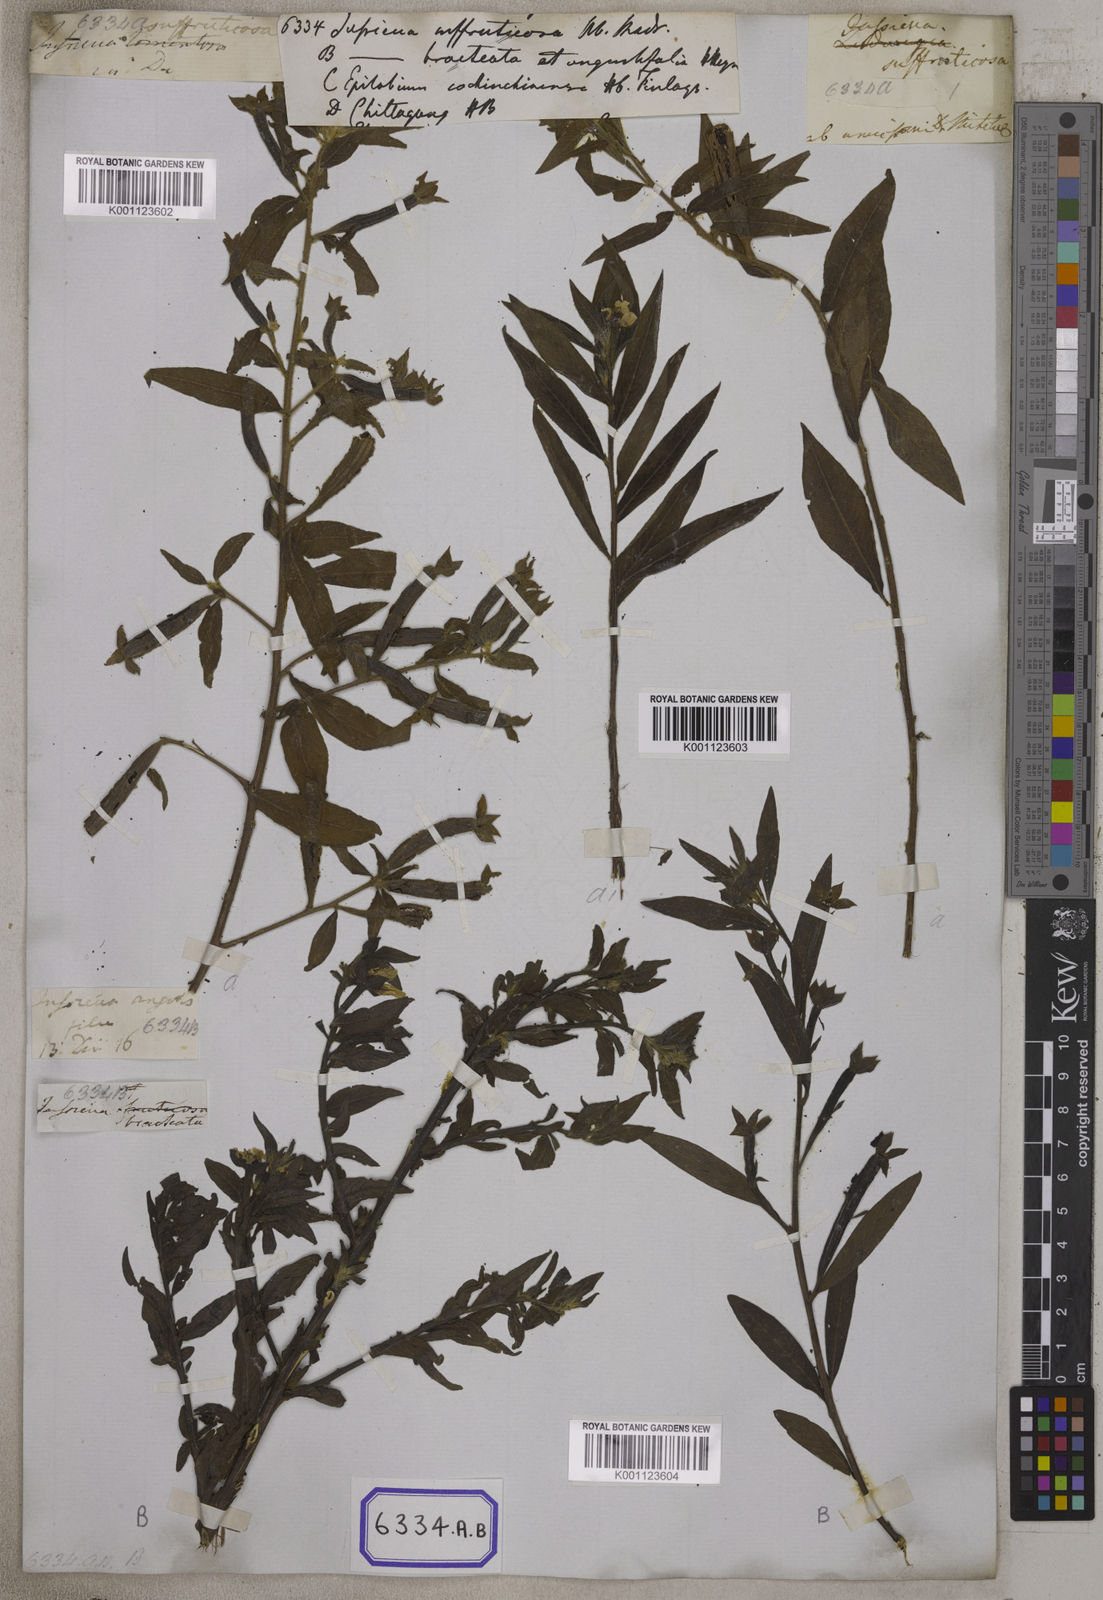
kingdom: Plantae
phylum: Tracheophyta
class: Magnoliopsida
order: Myrtales
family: Onagraceae
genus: Ludwigia
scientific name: Ludwigia octovalvis
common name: Water-primrose
